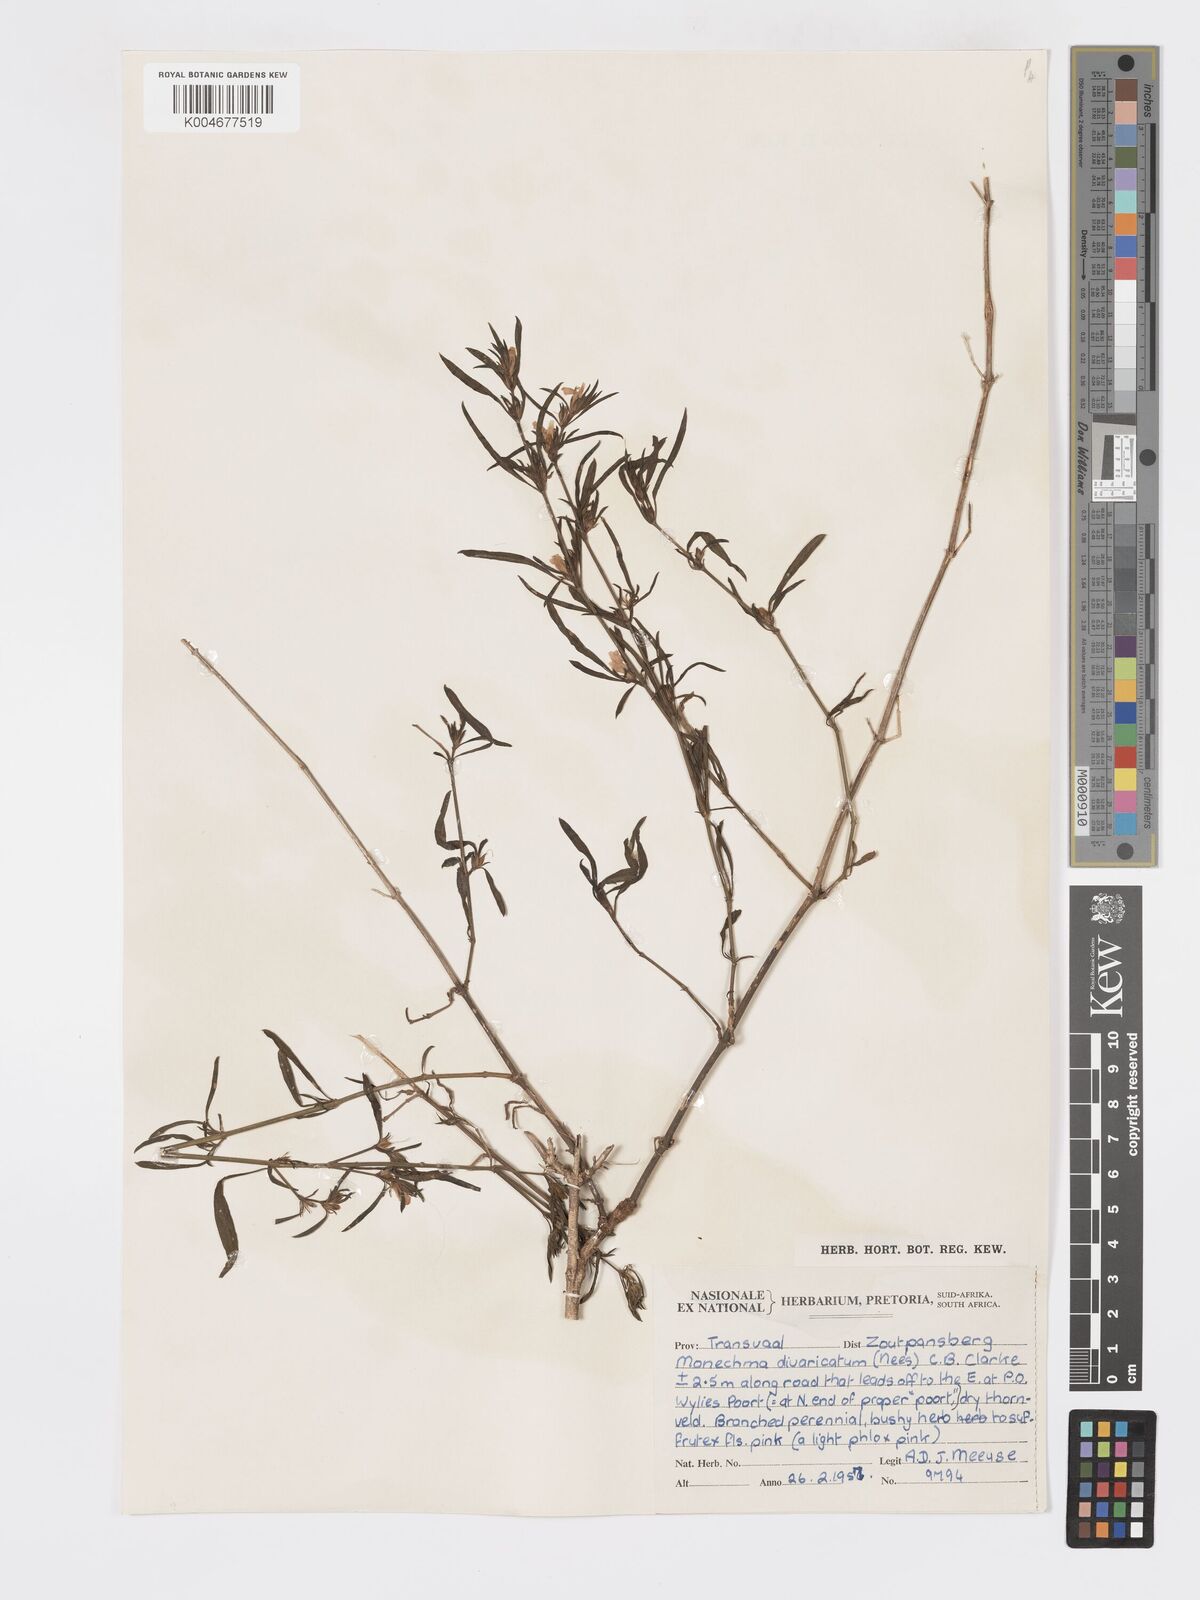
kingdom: Plantae
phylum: Tracheophyta
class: Magnoliopsida
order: Lamiales
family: Acanthaceae
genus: Pogonospermum
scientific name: Pogonospermum
